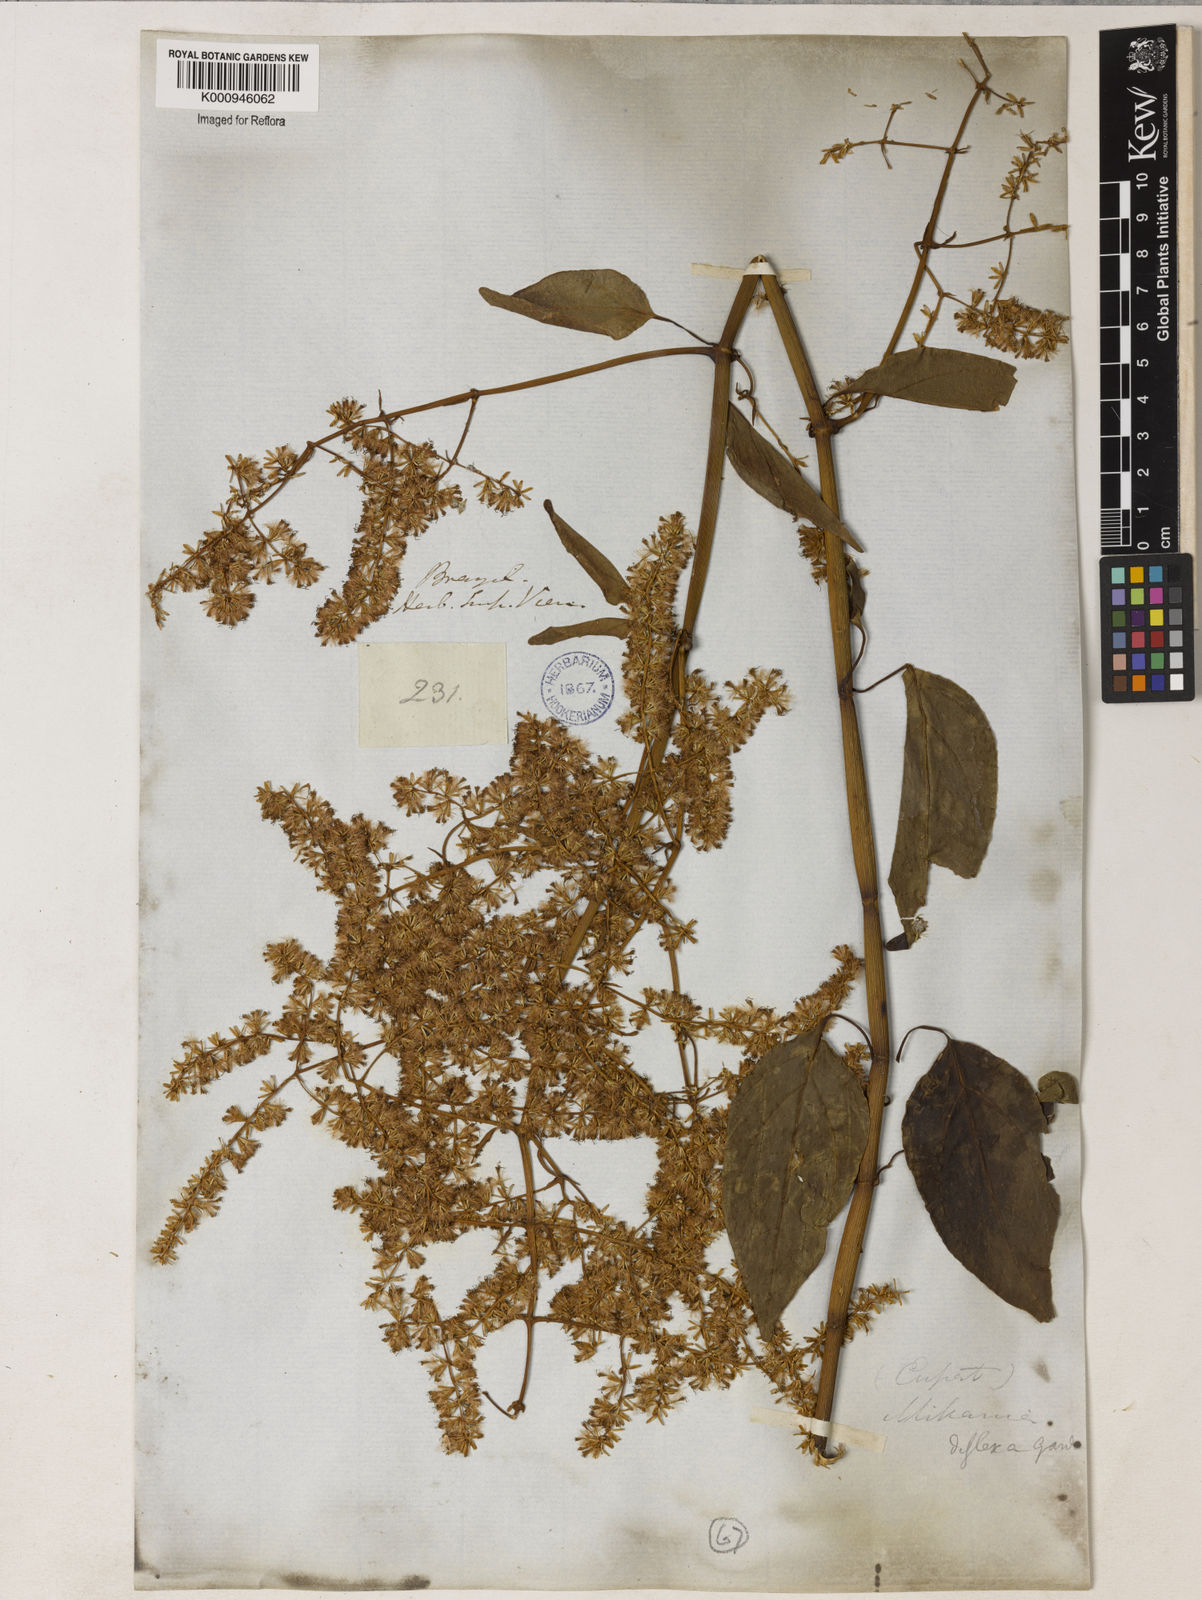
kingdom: Plantae
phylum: Tracheophyta
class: Magnoliopsida
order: Asterales
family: Asteraceae
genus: Mikania
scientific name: Mikania lundiana
